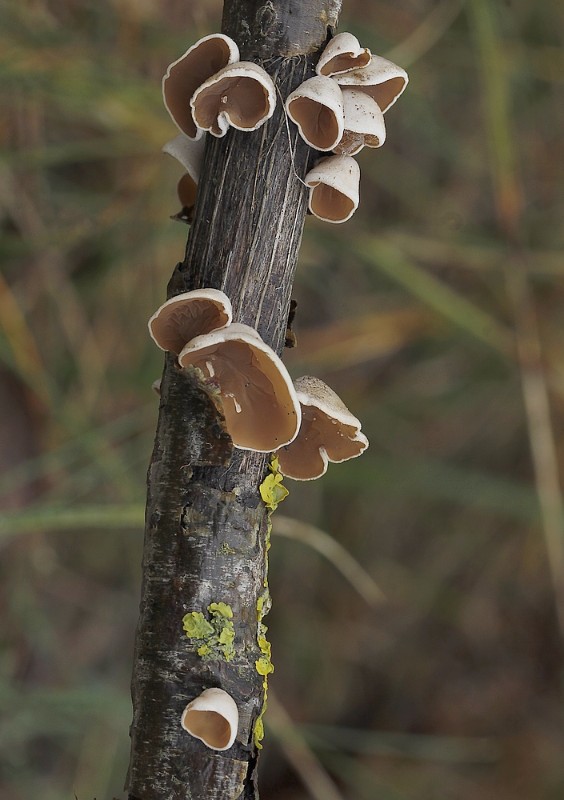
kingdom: Fungi
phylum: Basidiomycota
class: Agaricomycetes
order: Agaricales
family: Schizophyllaceae
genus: Schizophyllum
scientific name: Schizophyllum amplum
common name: poppel-hængeøre
